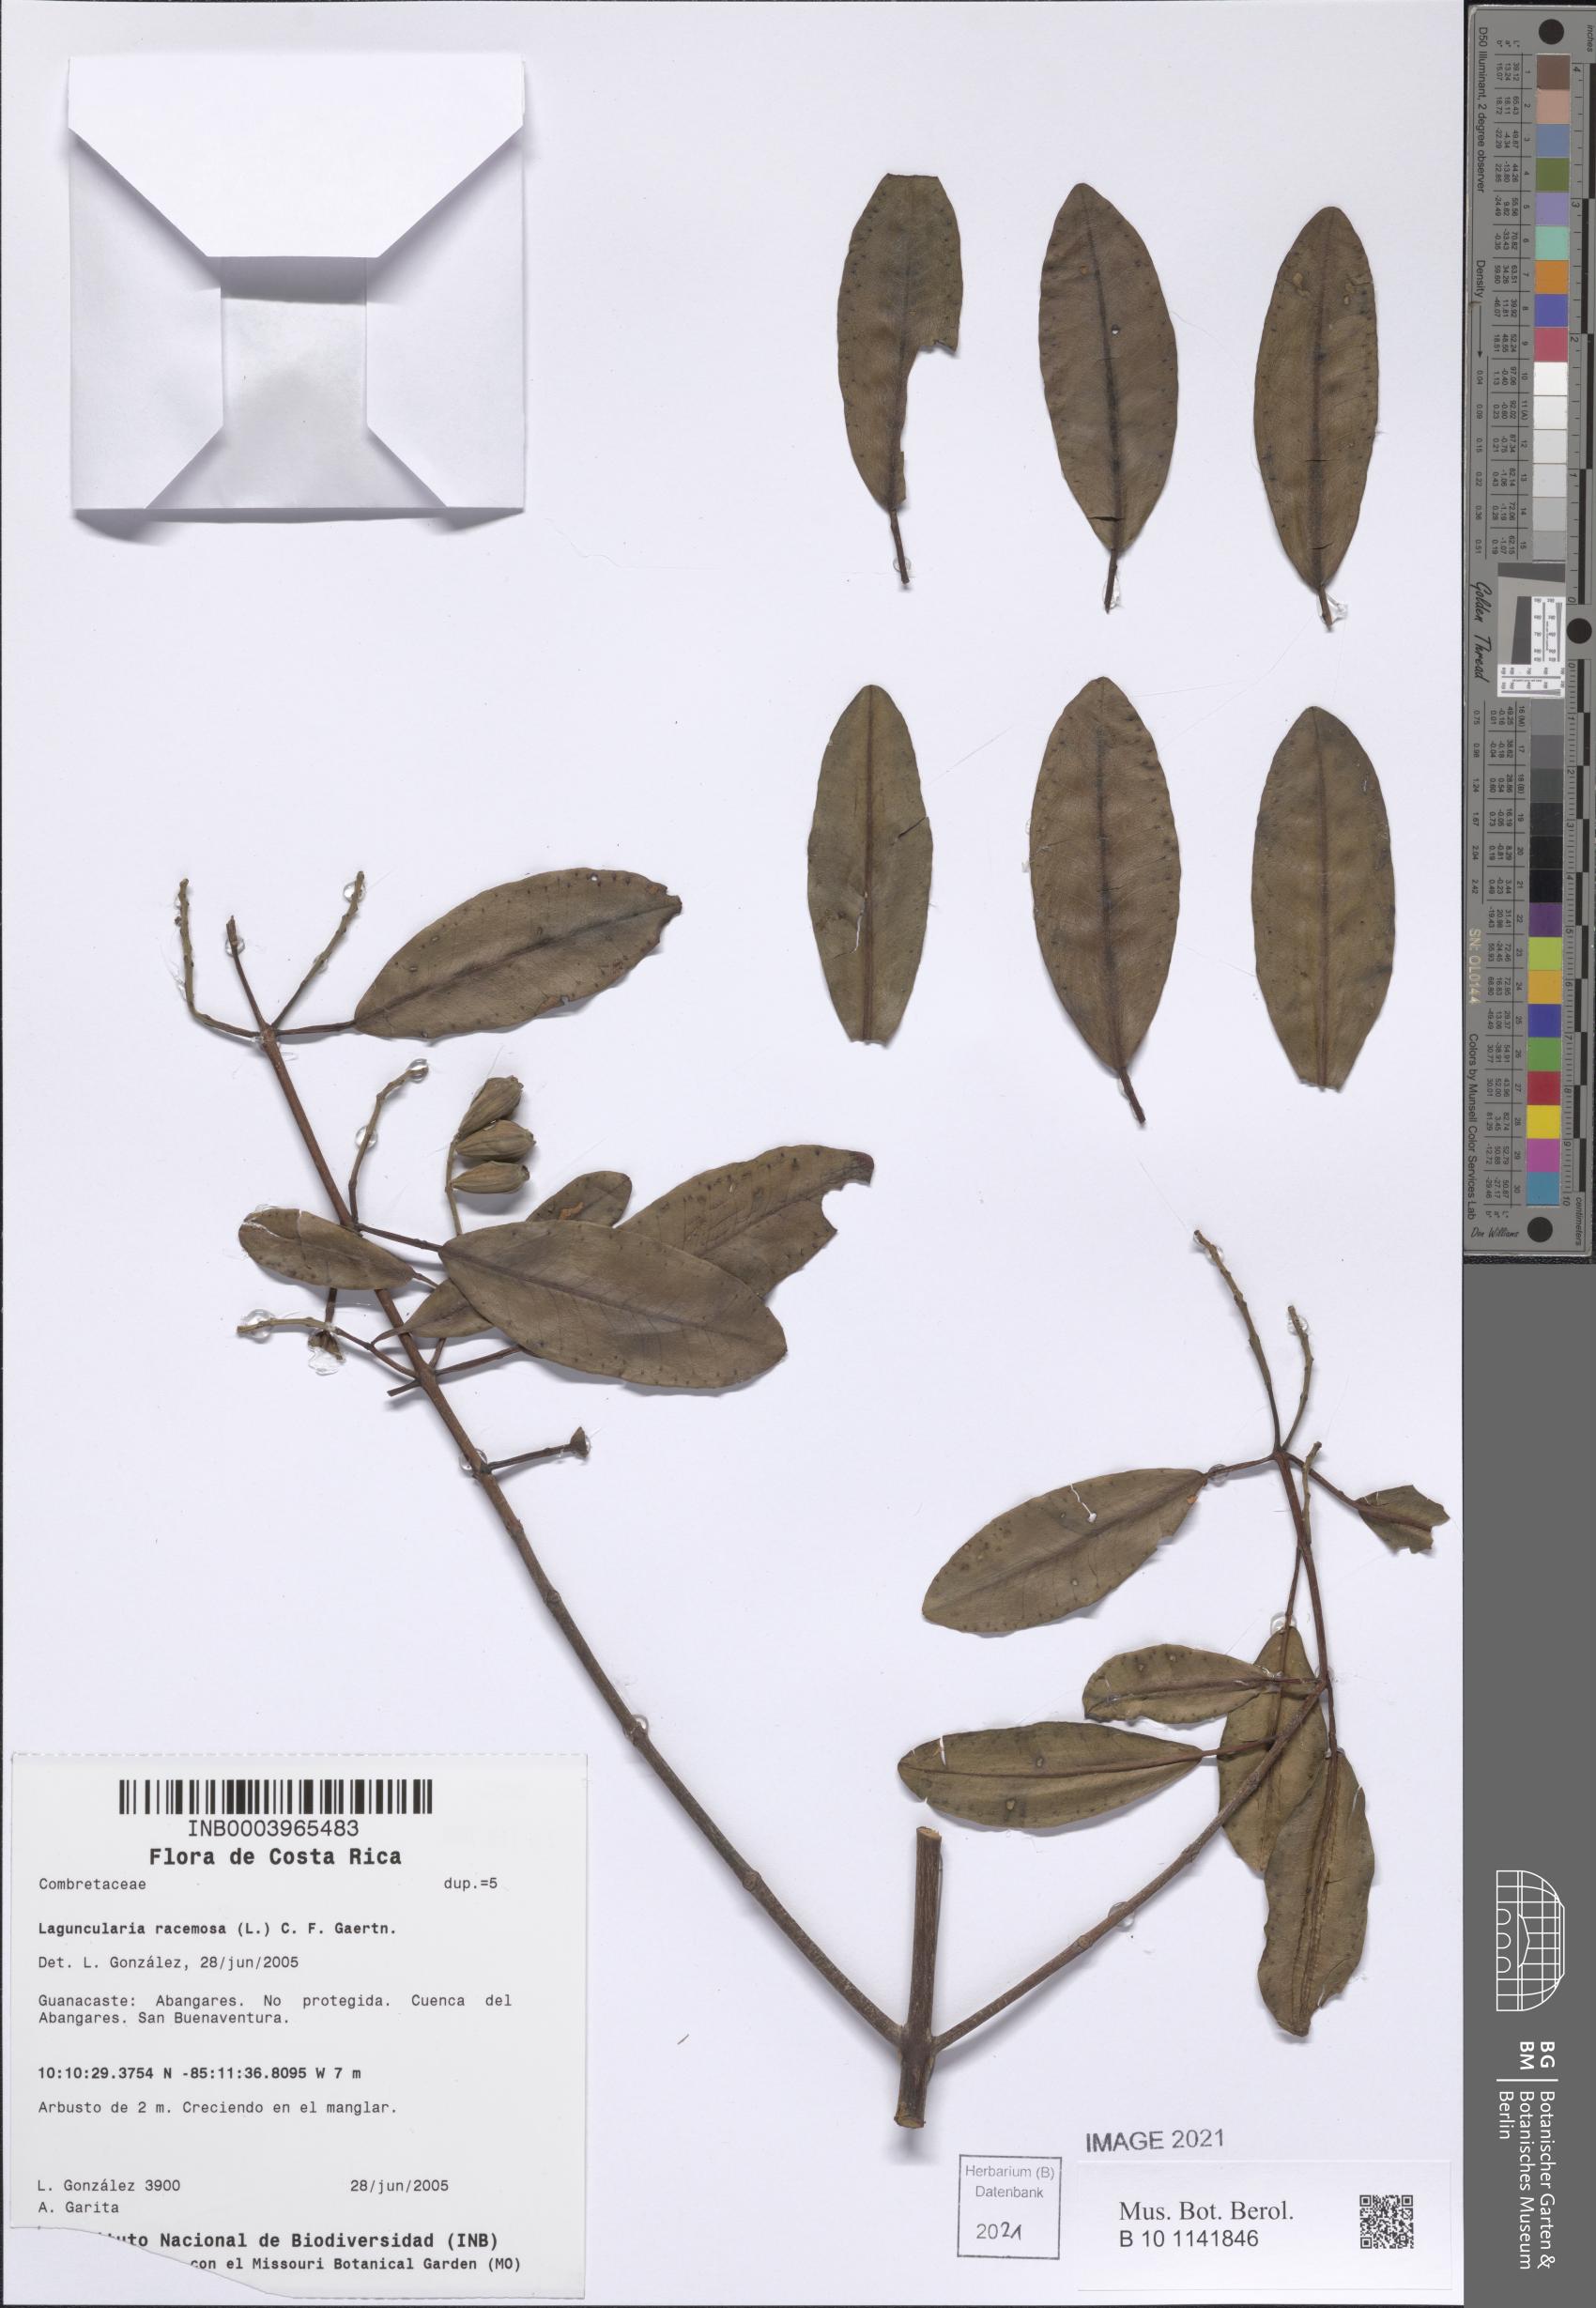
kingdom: Plantae
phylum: Tracheophyta
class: Magnoliopsida
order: Myrtales
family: Combretaceae
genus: Laguncularia
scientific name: Laguncularia racemosa
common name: White mangrove
